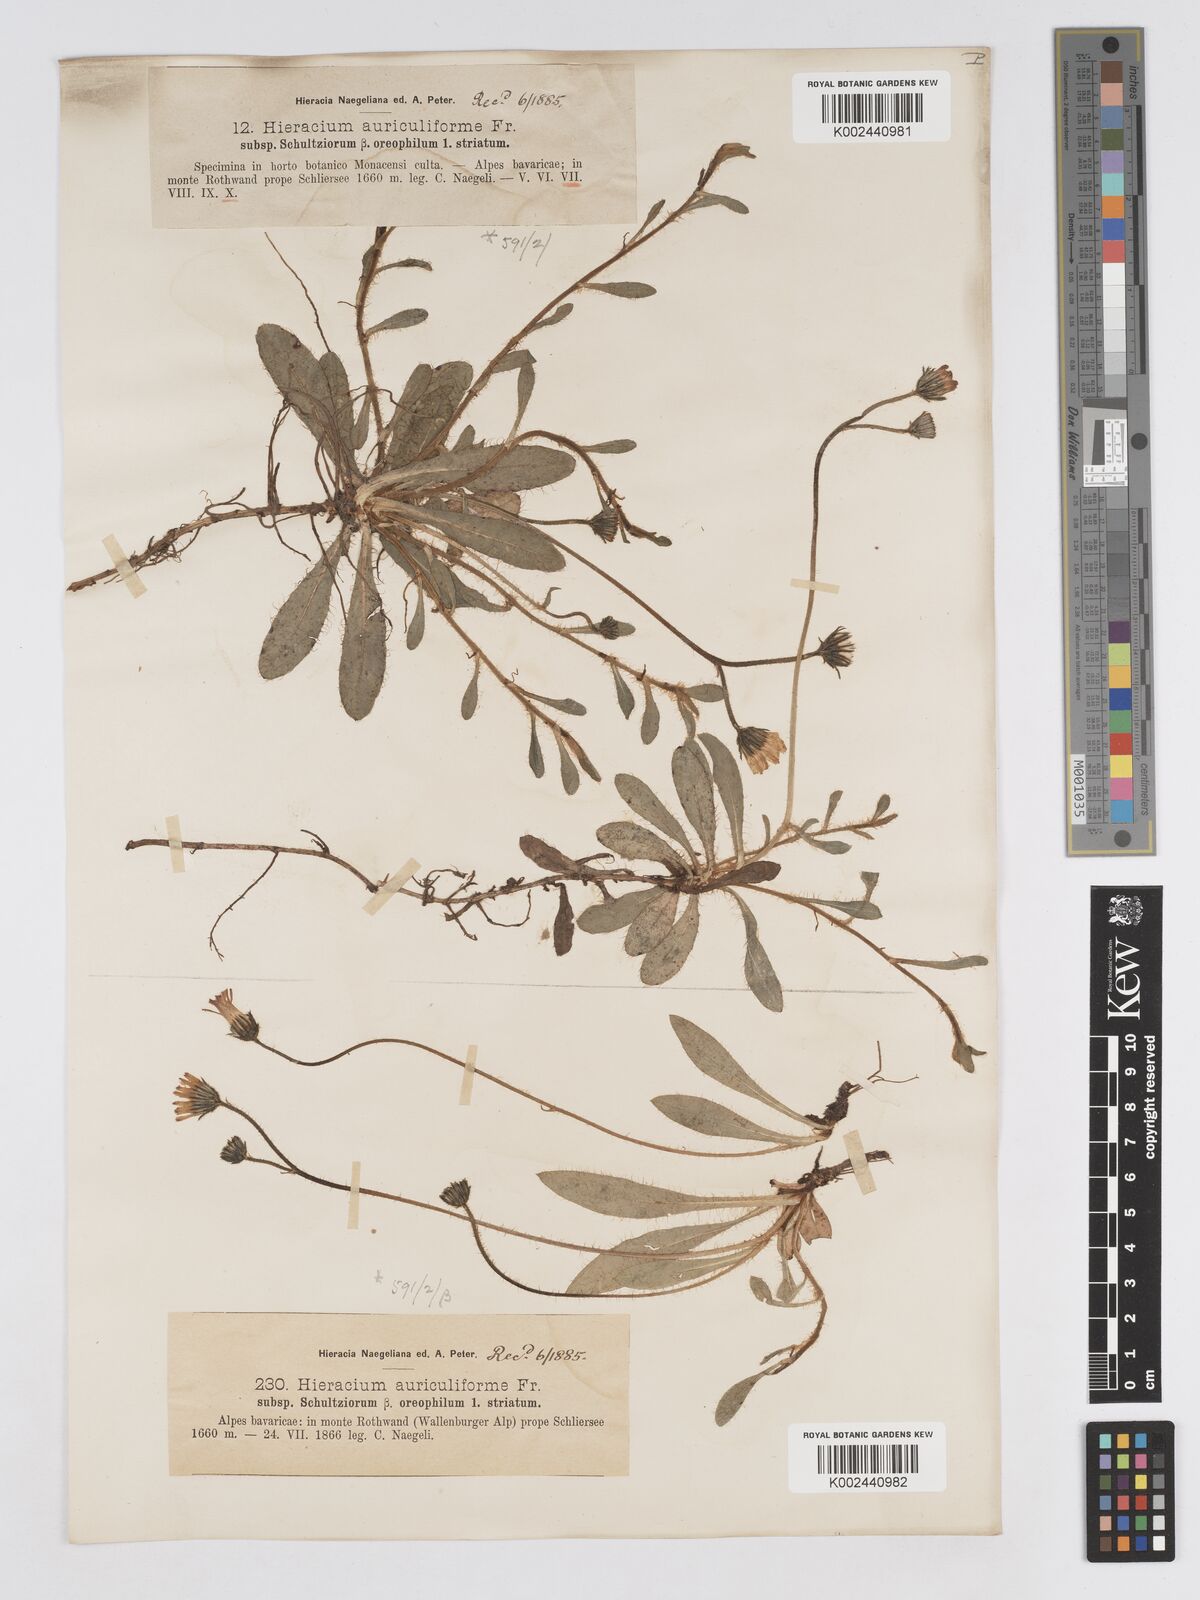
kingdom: Plantae
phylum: Tracheophyta
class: Magnoliopsida
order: Asterales
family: Asteraceae
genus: Pilosella
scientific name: Pilosella schultesii
